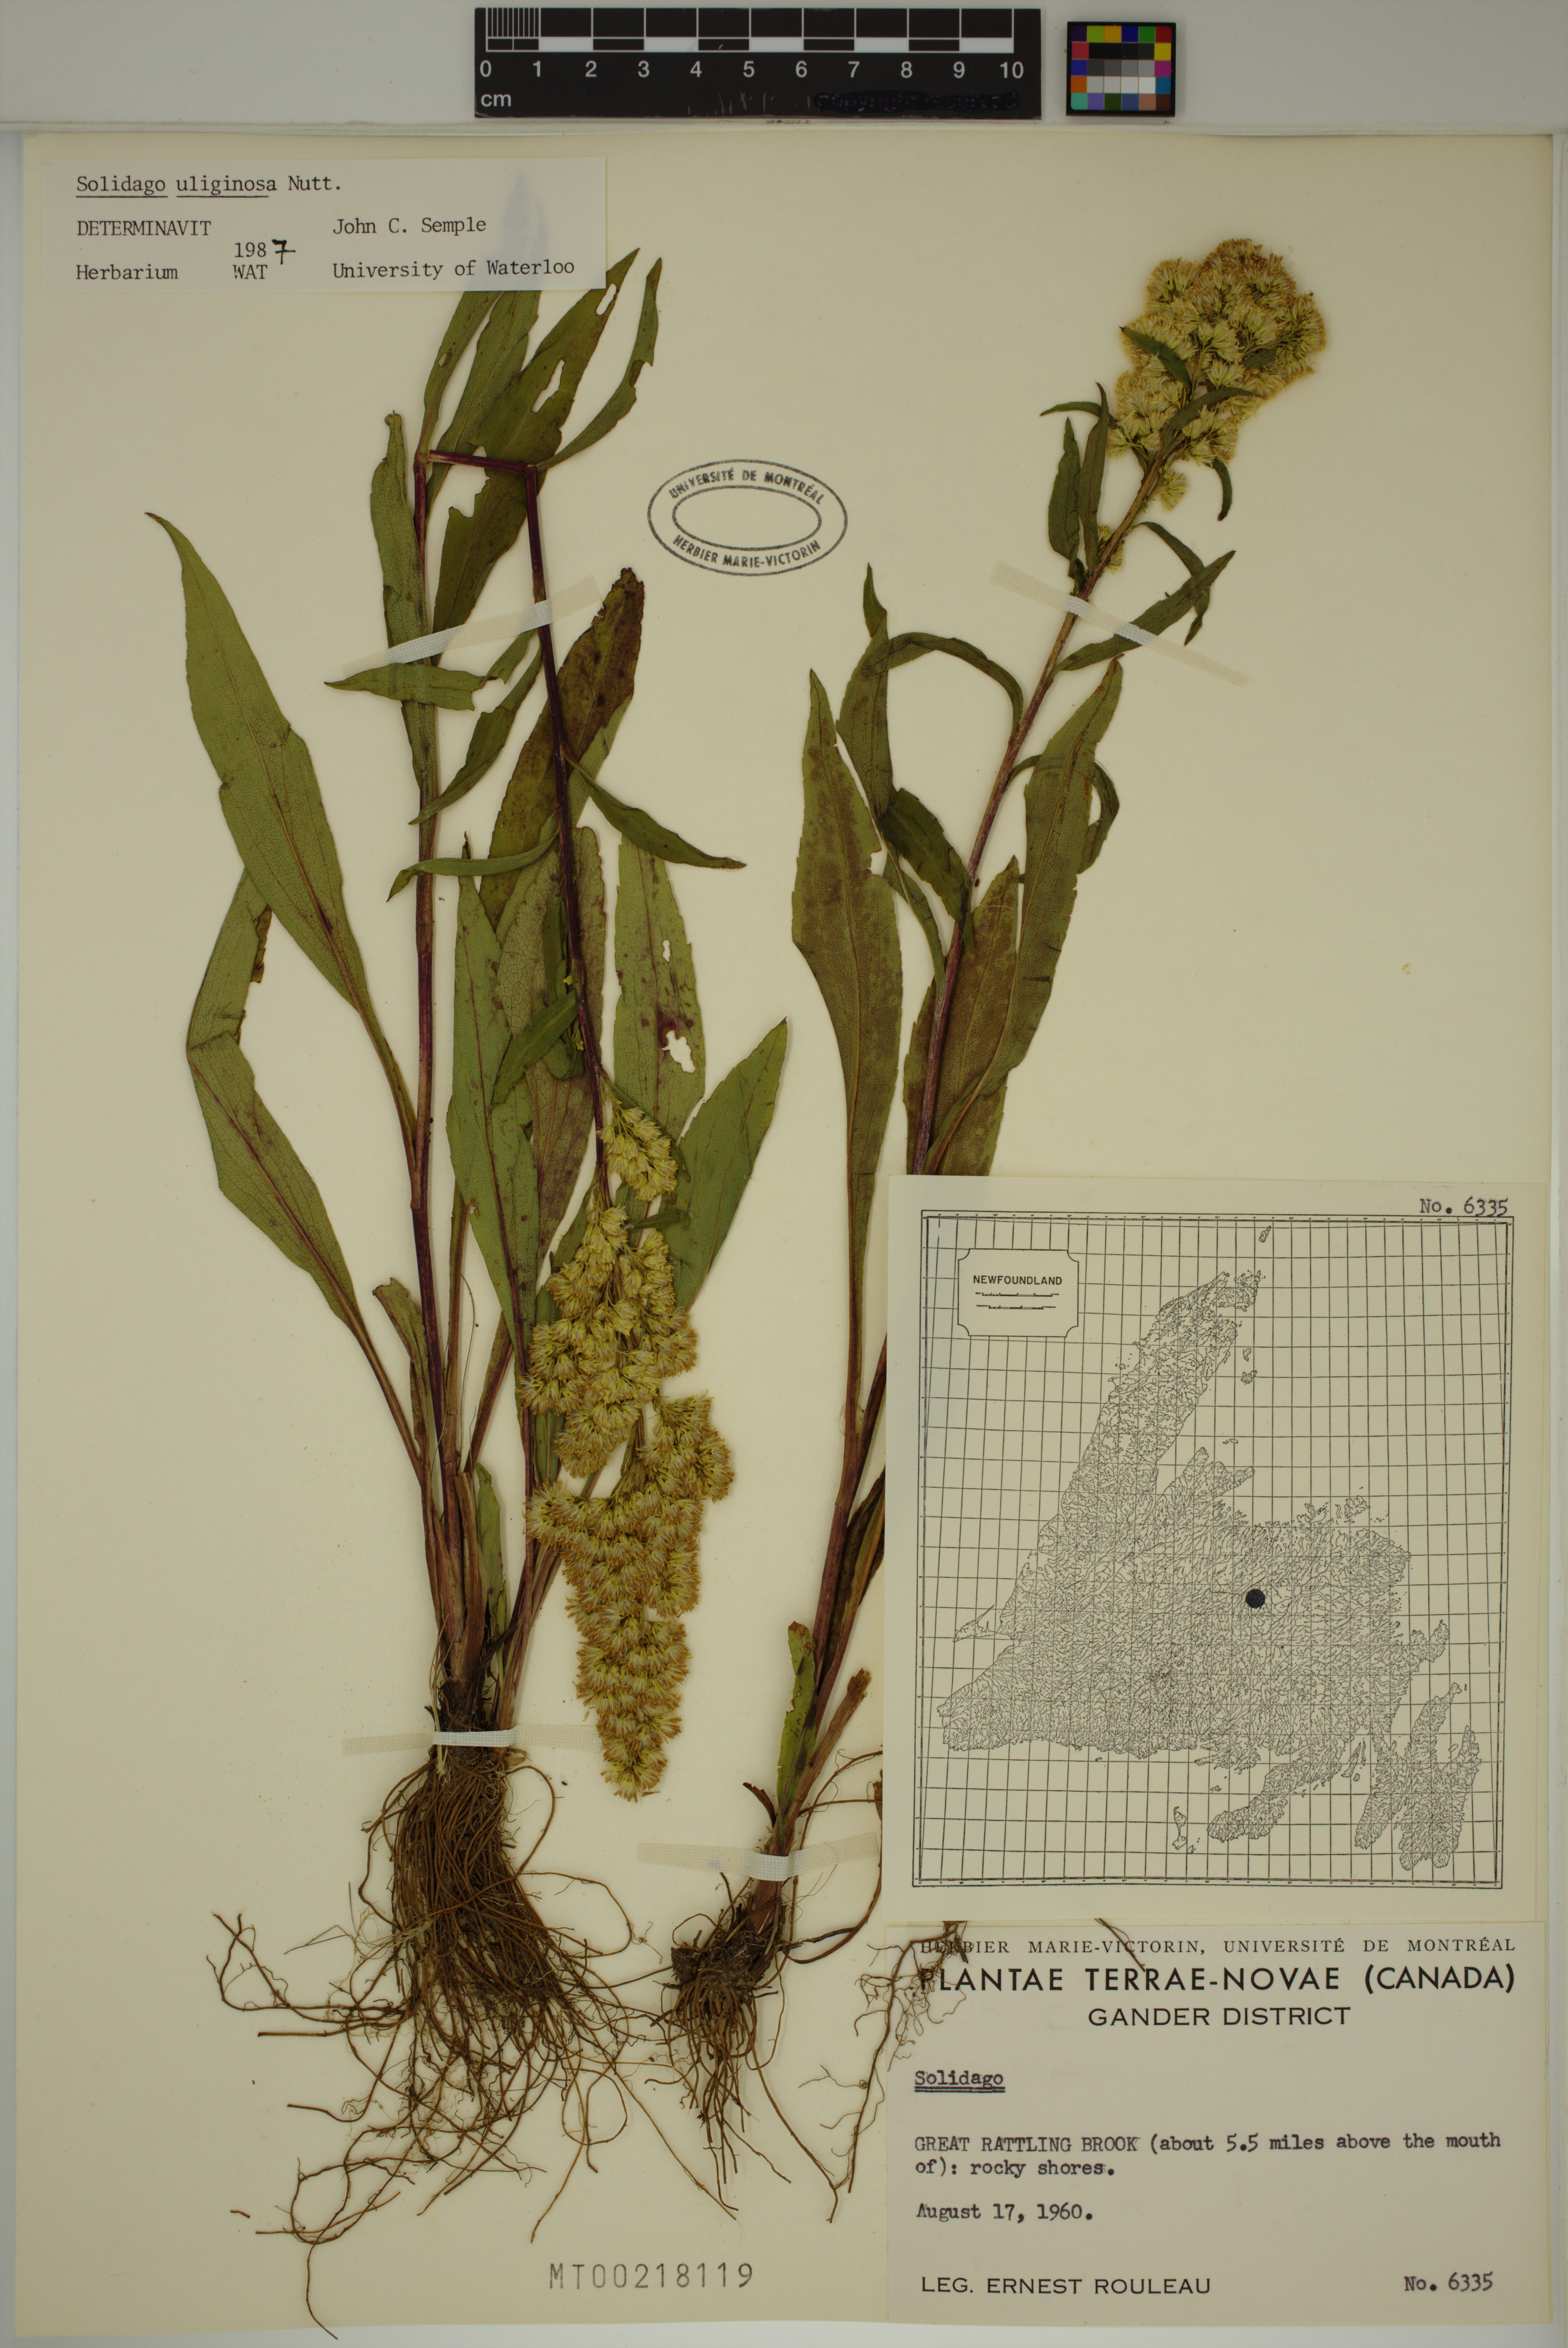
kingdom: Plantae
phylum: Tracheophyta
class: Magnoliopsida
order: Asterales
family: Asteraceae
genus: Solidago
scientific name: Solidago uliginosa
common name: Bog goldenrod
